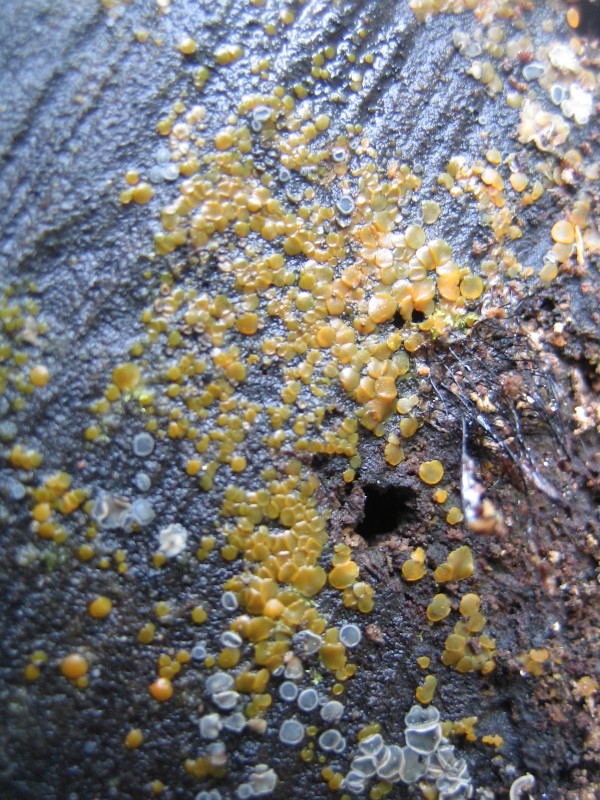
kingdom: Fungi
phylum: Ascomycota
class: Orbiliomycetes
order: Orbiliales
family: Orbiliaceae
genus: Orbilia
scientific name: Orbilia xanthostigma
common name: krumsporet voksskive
